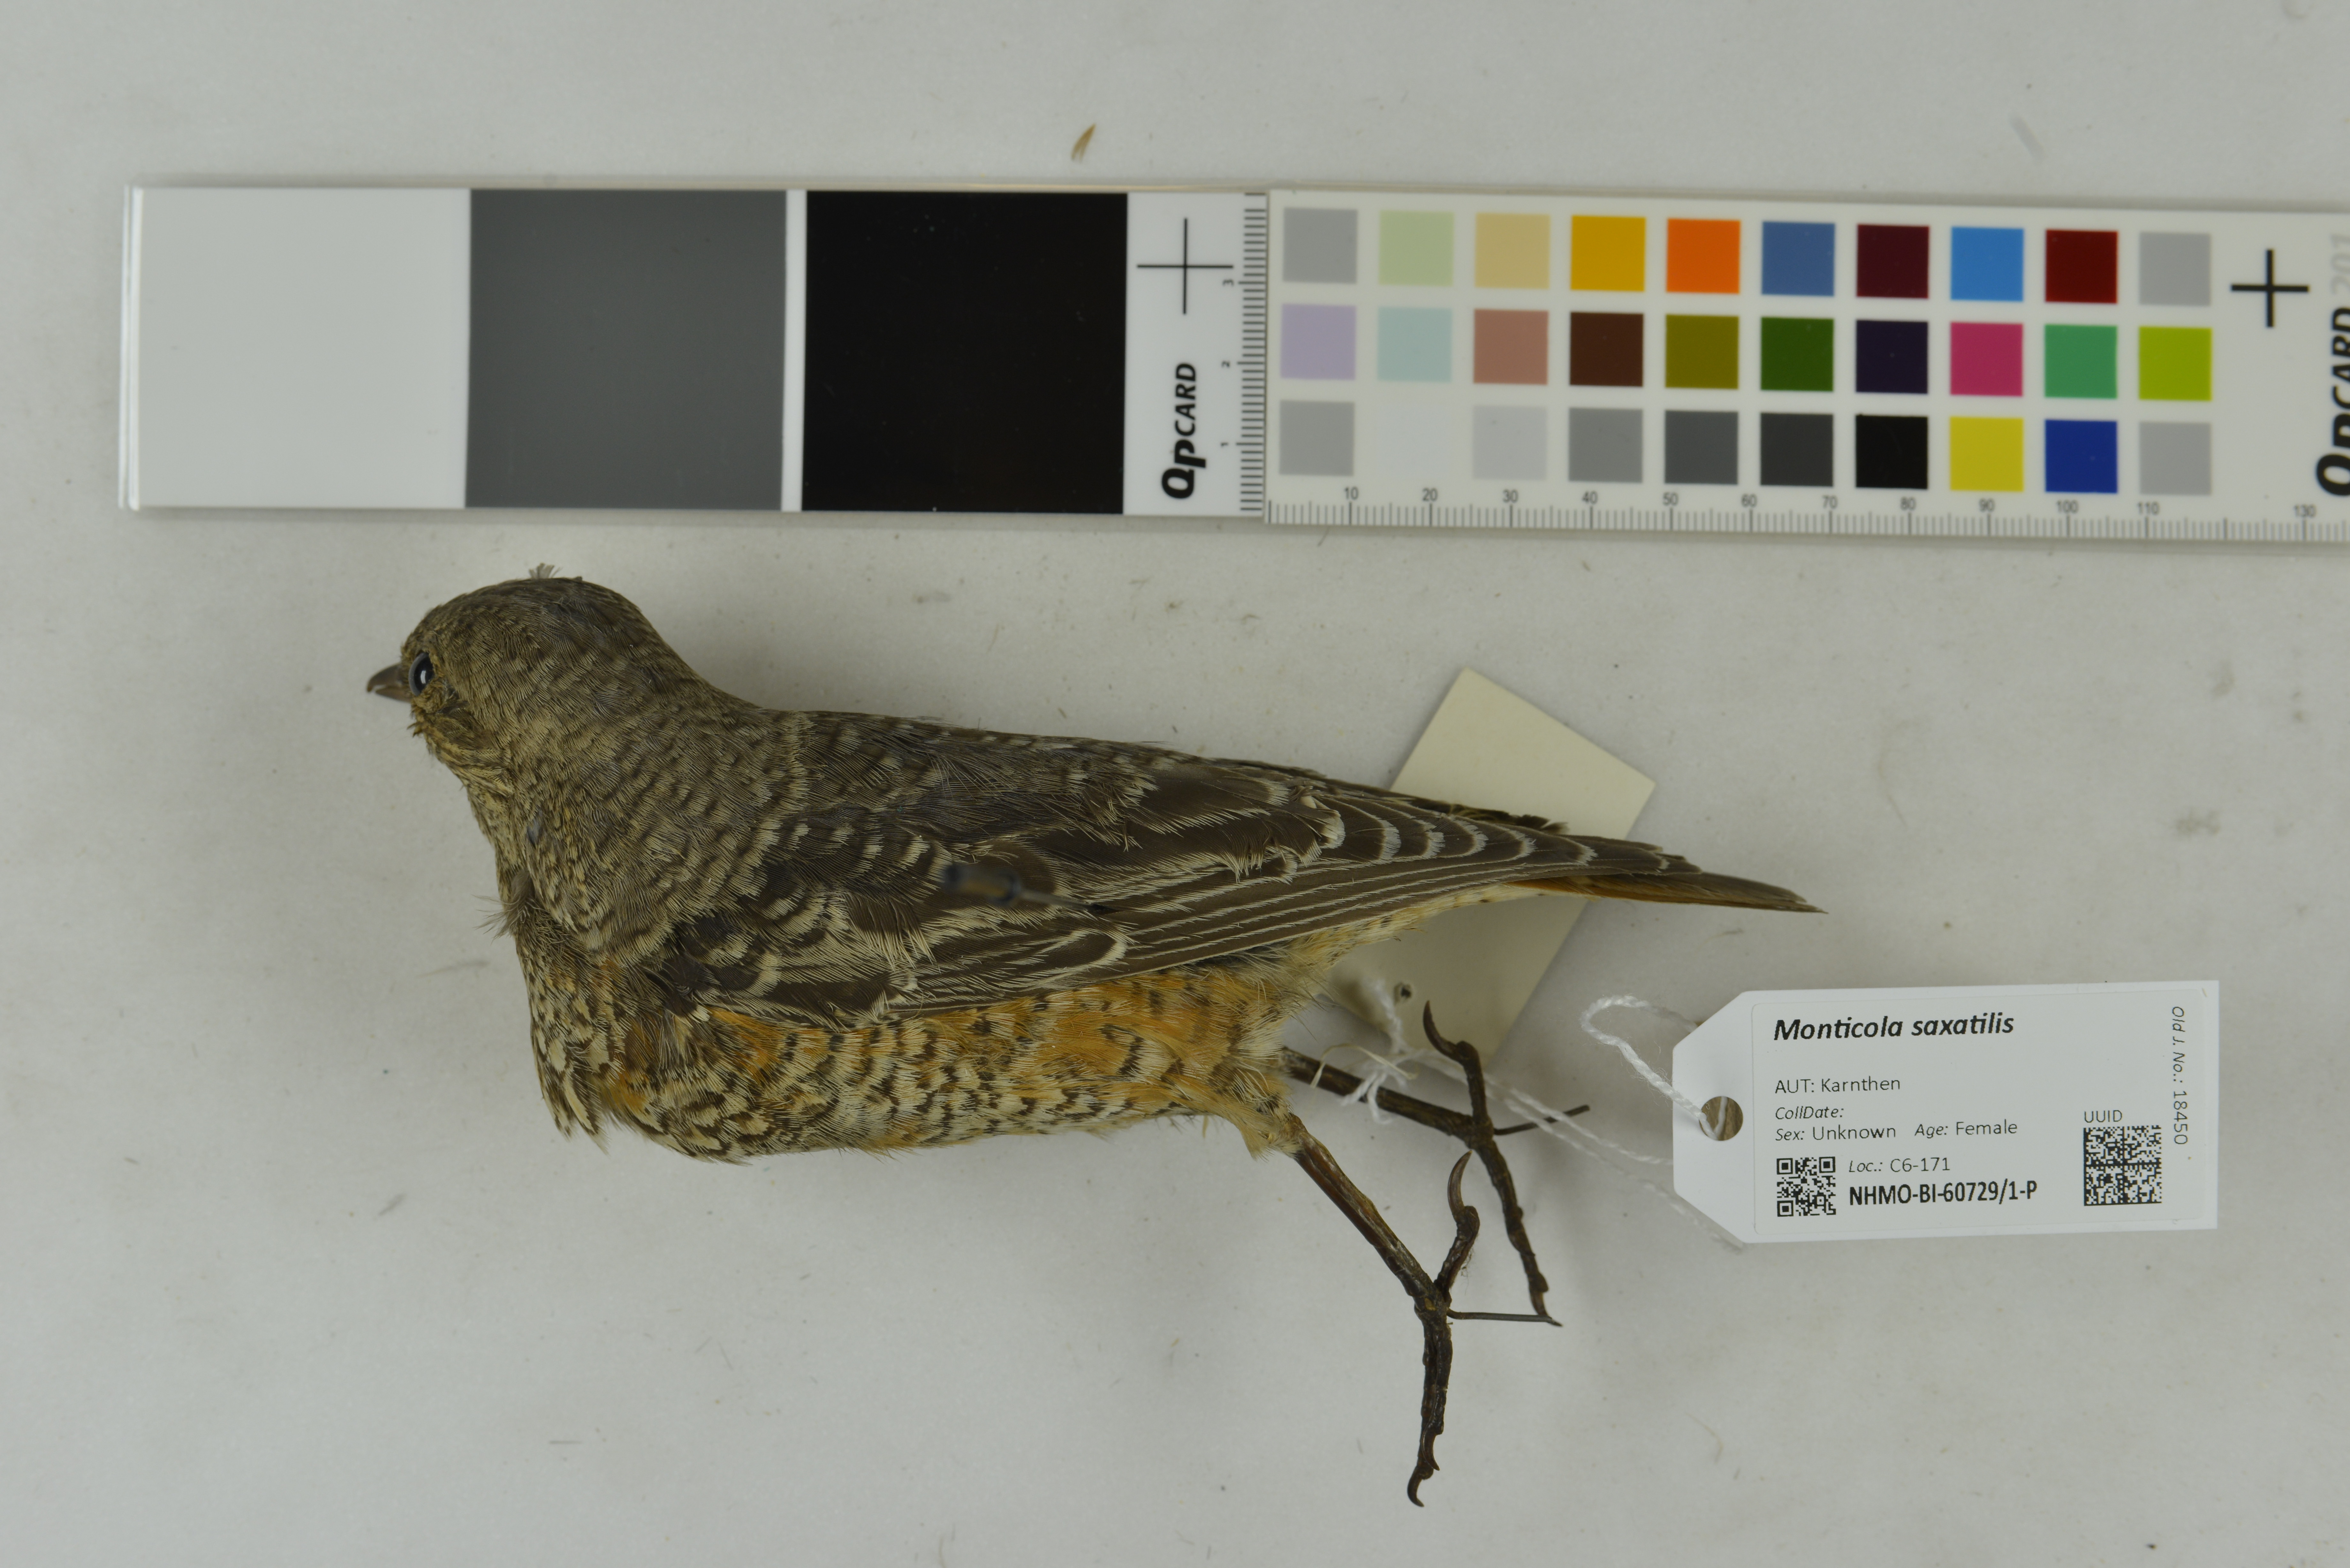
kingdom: Animalia
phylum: Chordata
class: Aves
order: Passeriformes
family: Muscicapidae
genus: Monticola
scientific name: Monticola saxatilis
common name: Rufous-tailed rock thrush
